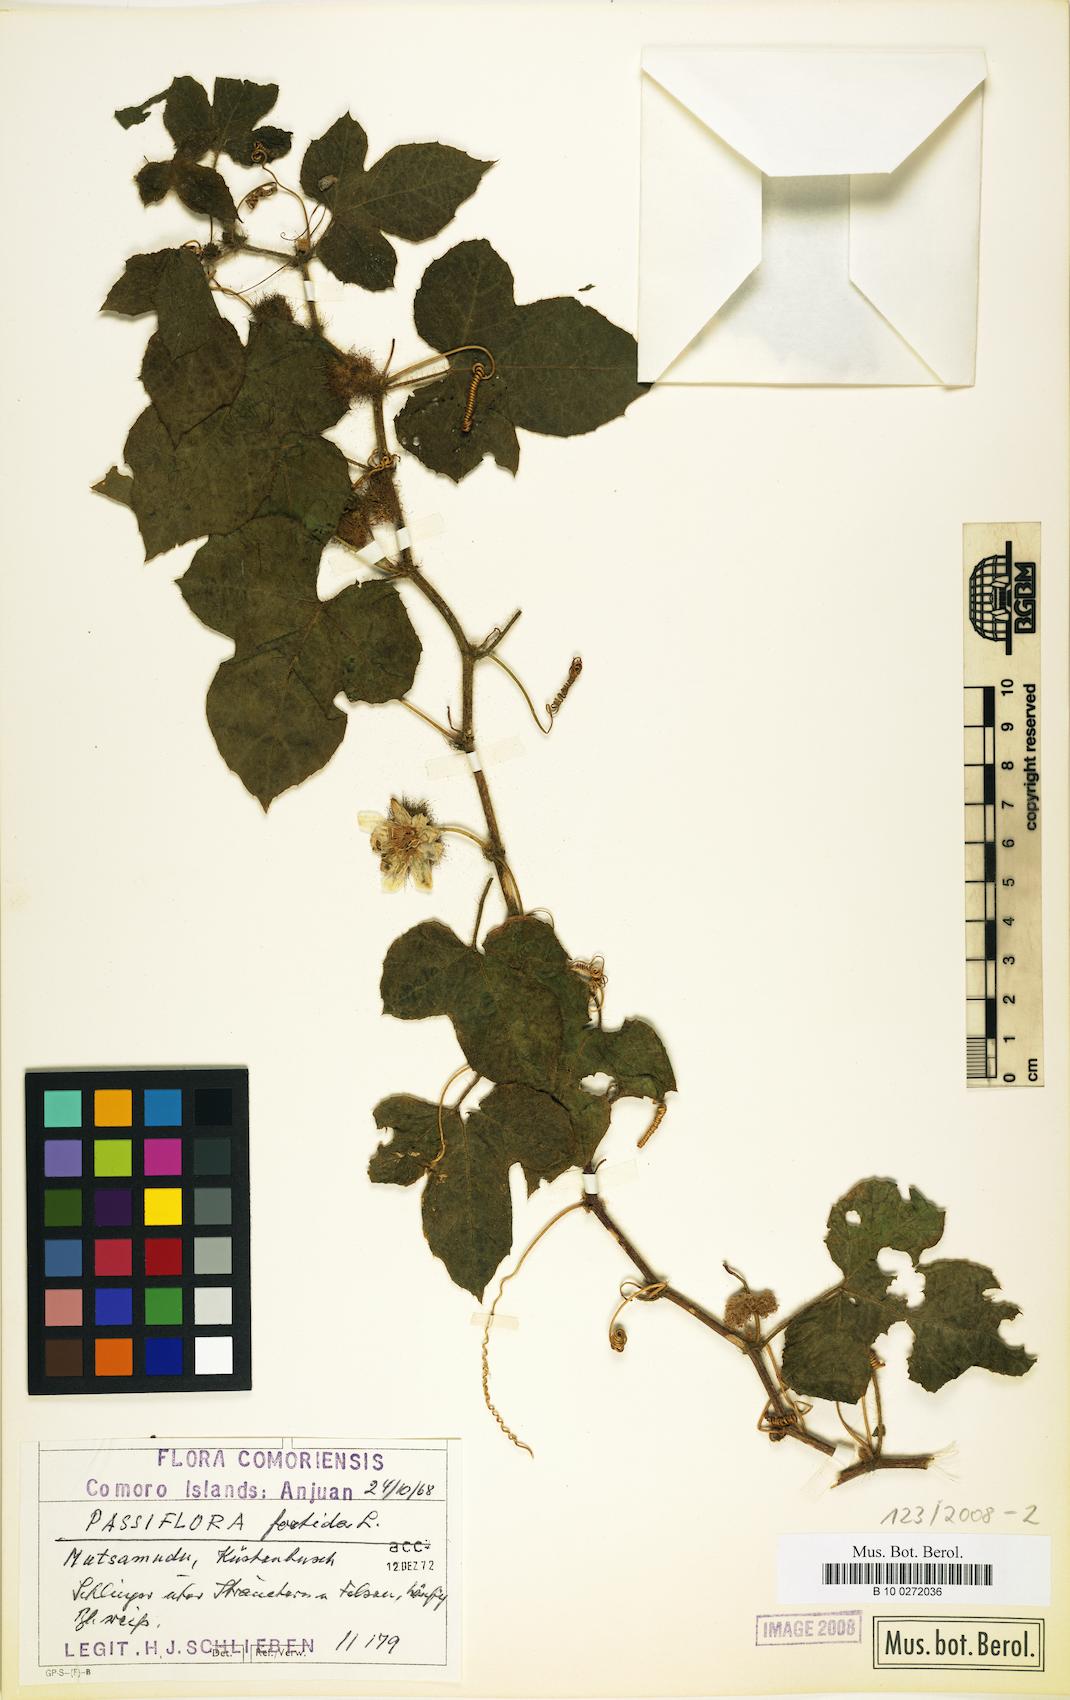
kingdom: Plantae
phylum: Tracheophyta
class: Magnoliopsida
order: Malpighiales
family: Passifloraceae
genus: Passiflora
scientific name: Passiflora foetida
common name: Fetid passionflower
